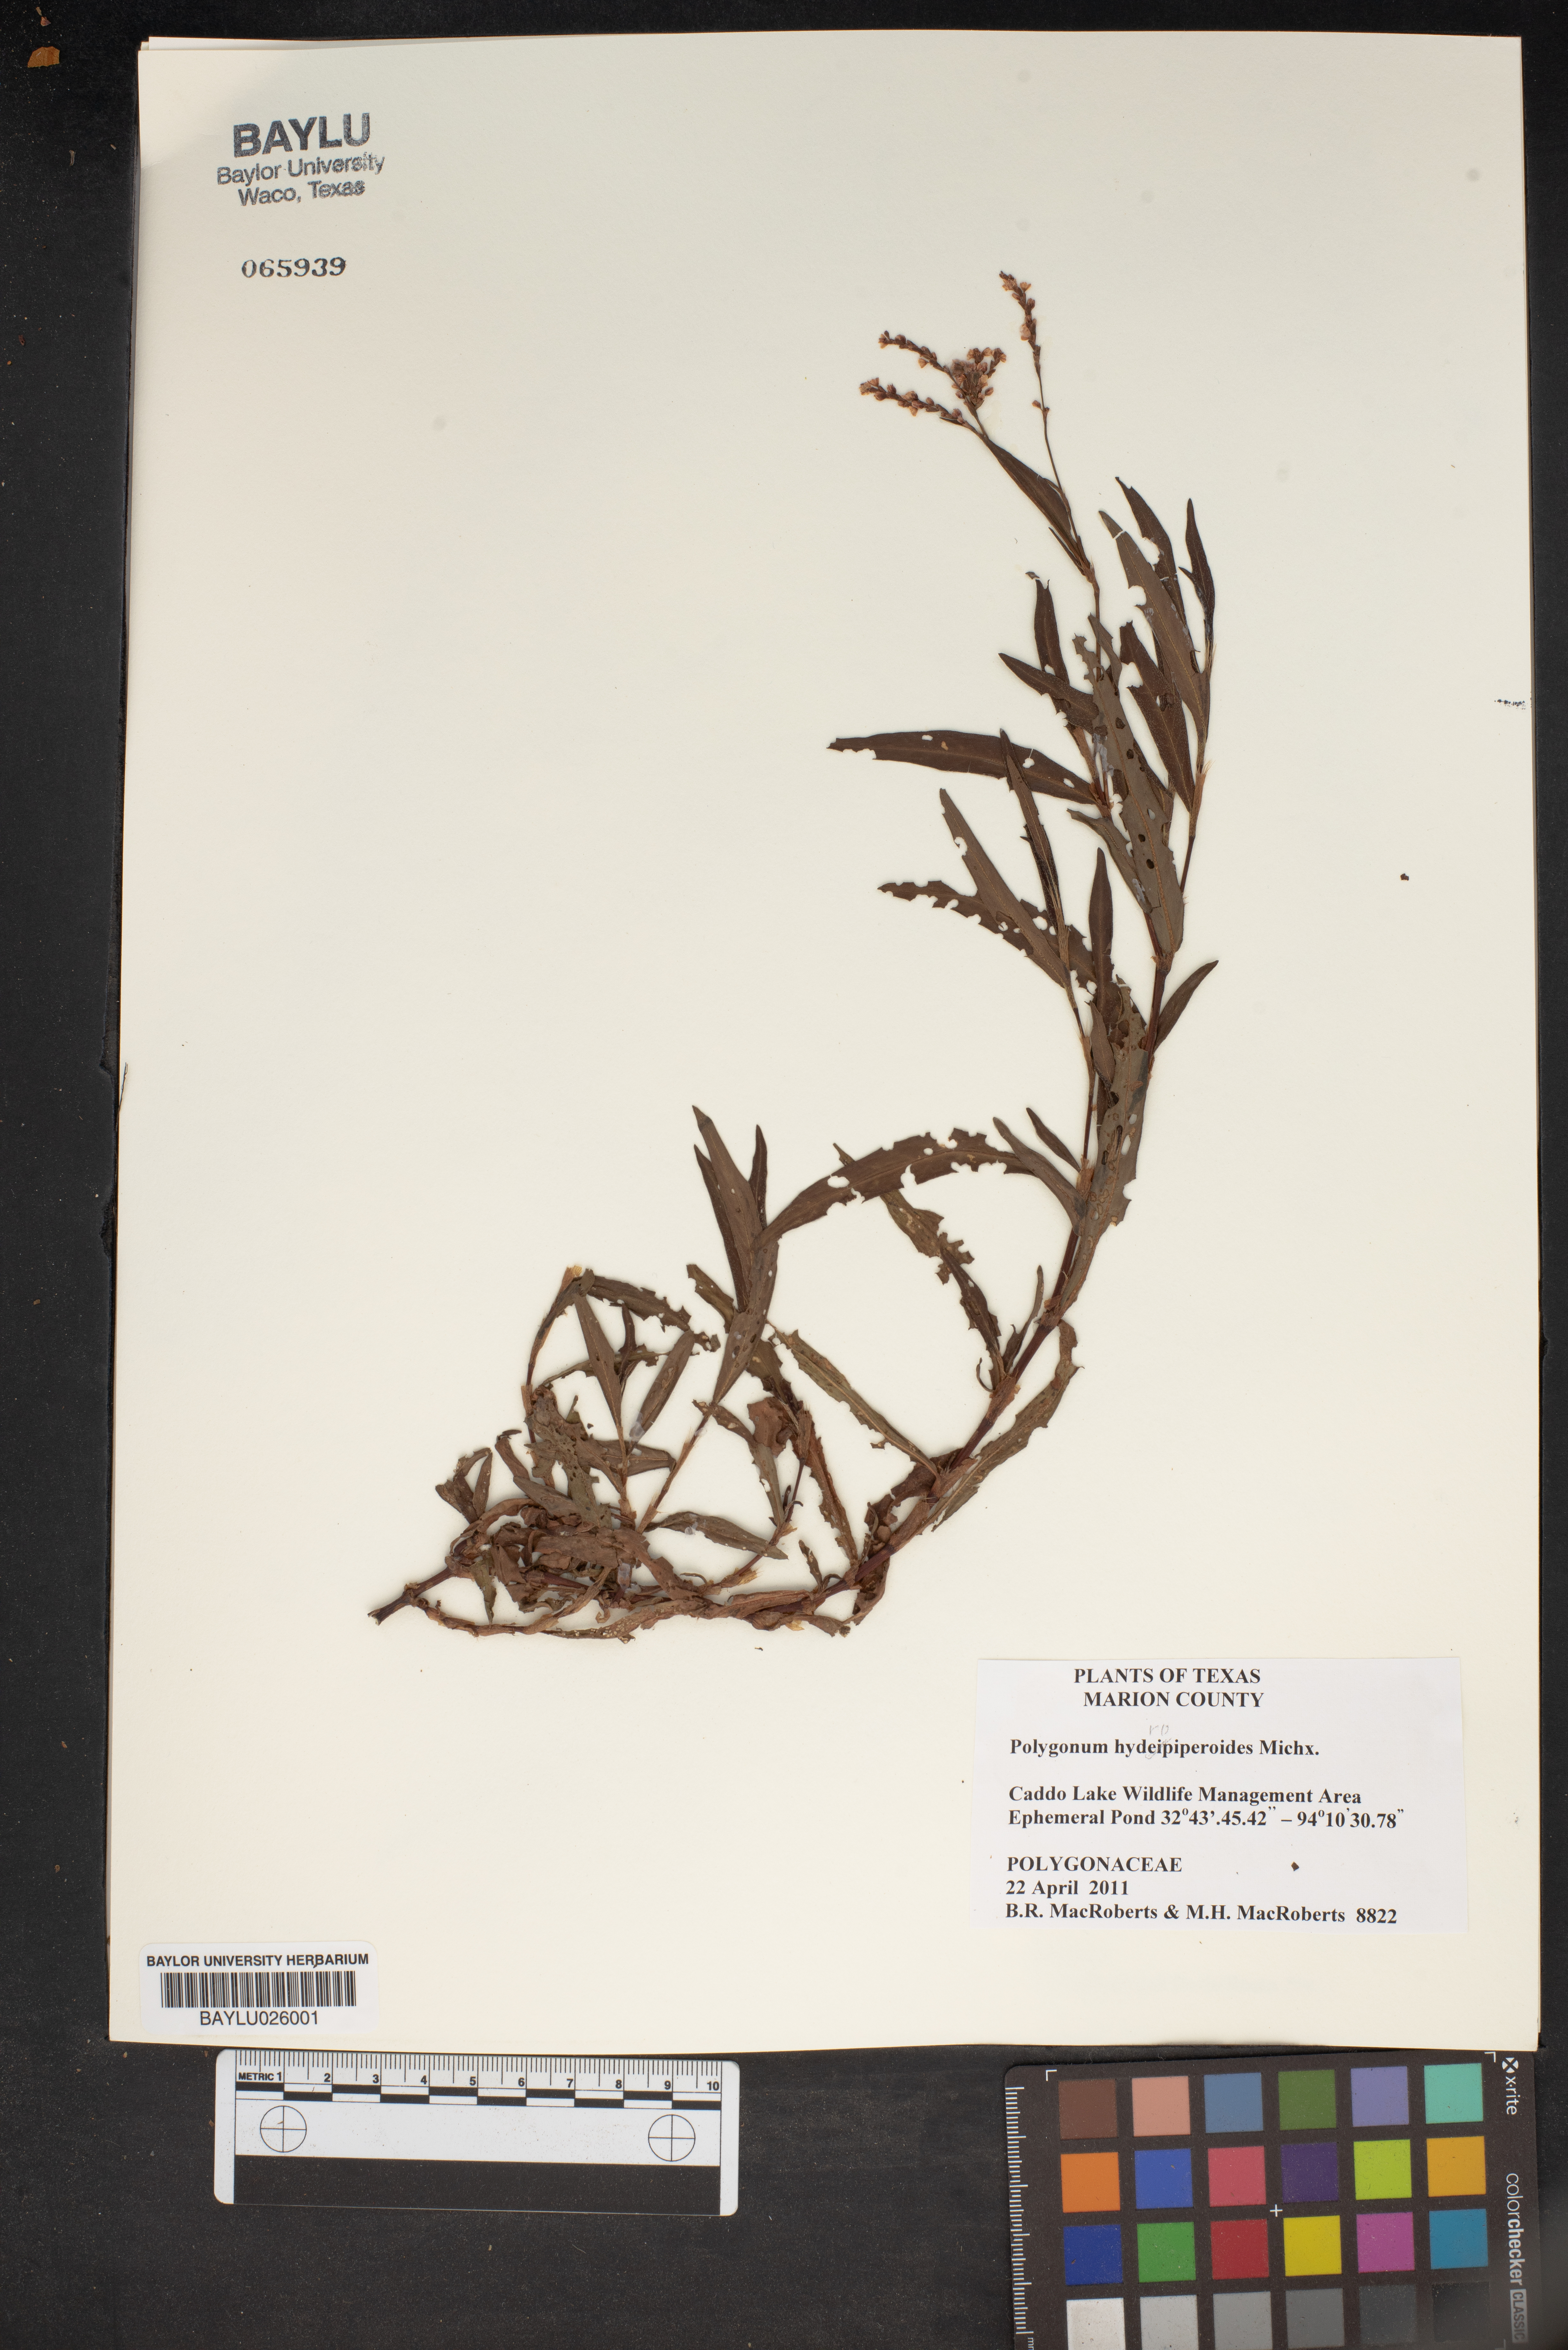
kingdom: Plantae
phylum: Tracheophyta
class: Magnoliopsida
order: Caryophyllales
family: Polygonaceae
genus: Persicaria
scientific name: Persicaria hydropiperoides
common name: Swamp smartweed
